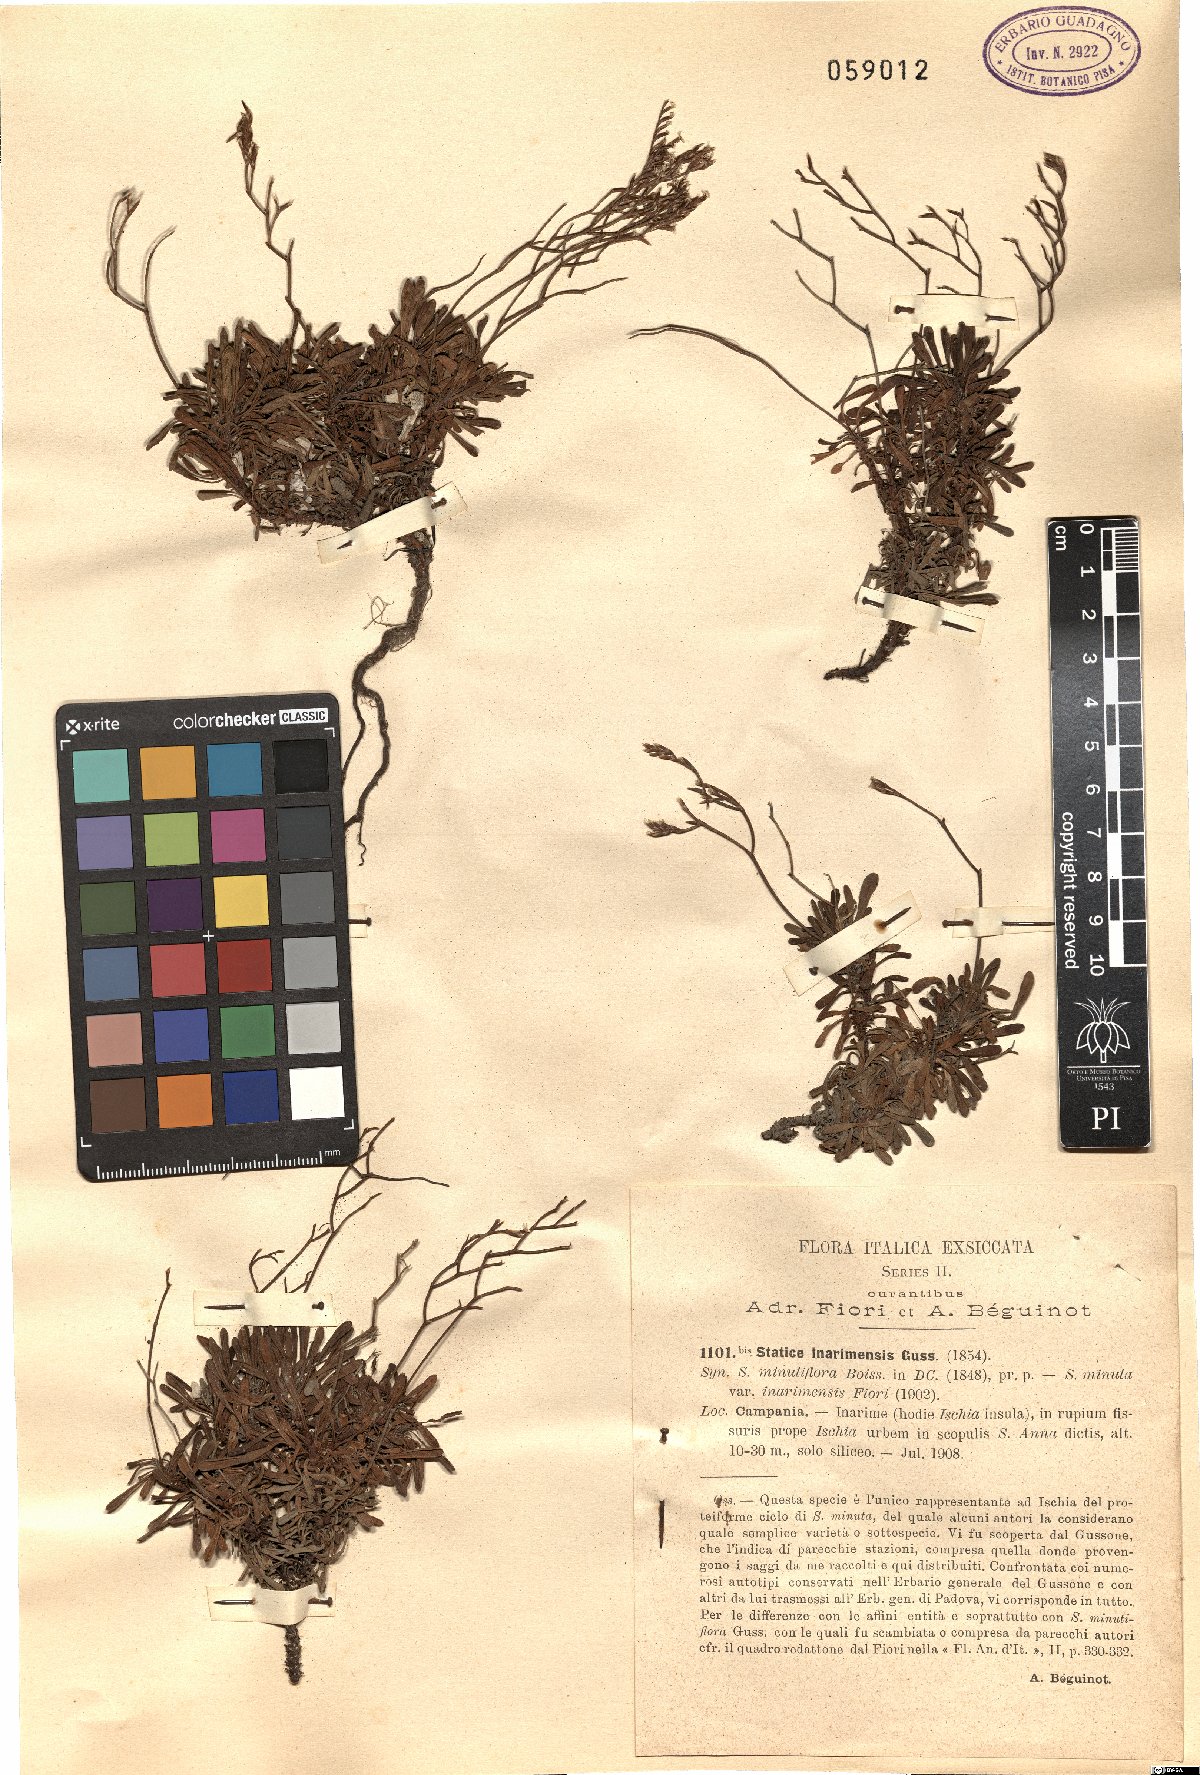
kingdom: Plantae
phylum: Tracheophyta
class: Magnoliopsida
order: Caryophyllales
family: Plumbaginaceae
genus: Limonium
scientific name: Limonium inarimense
